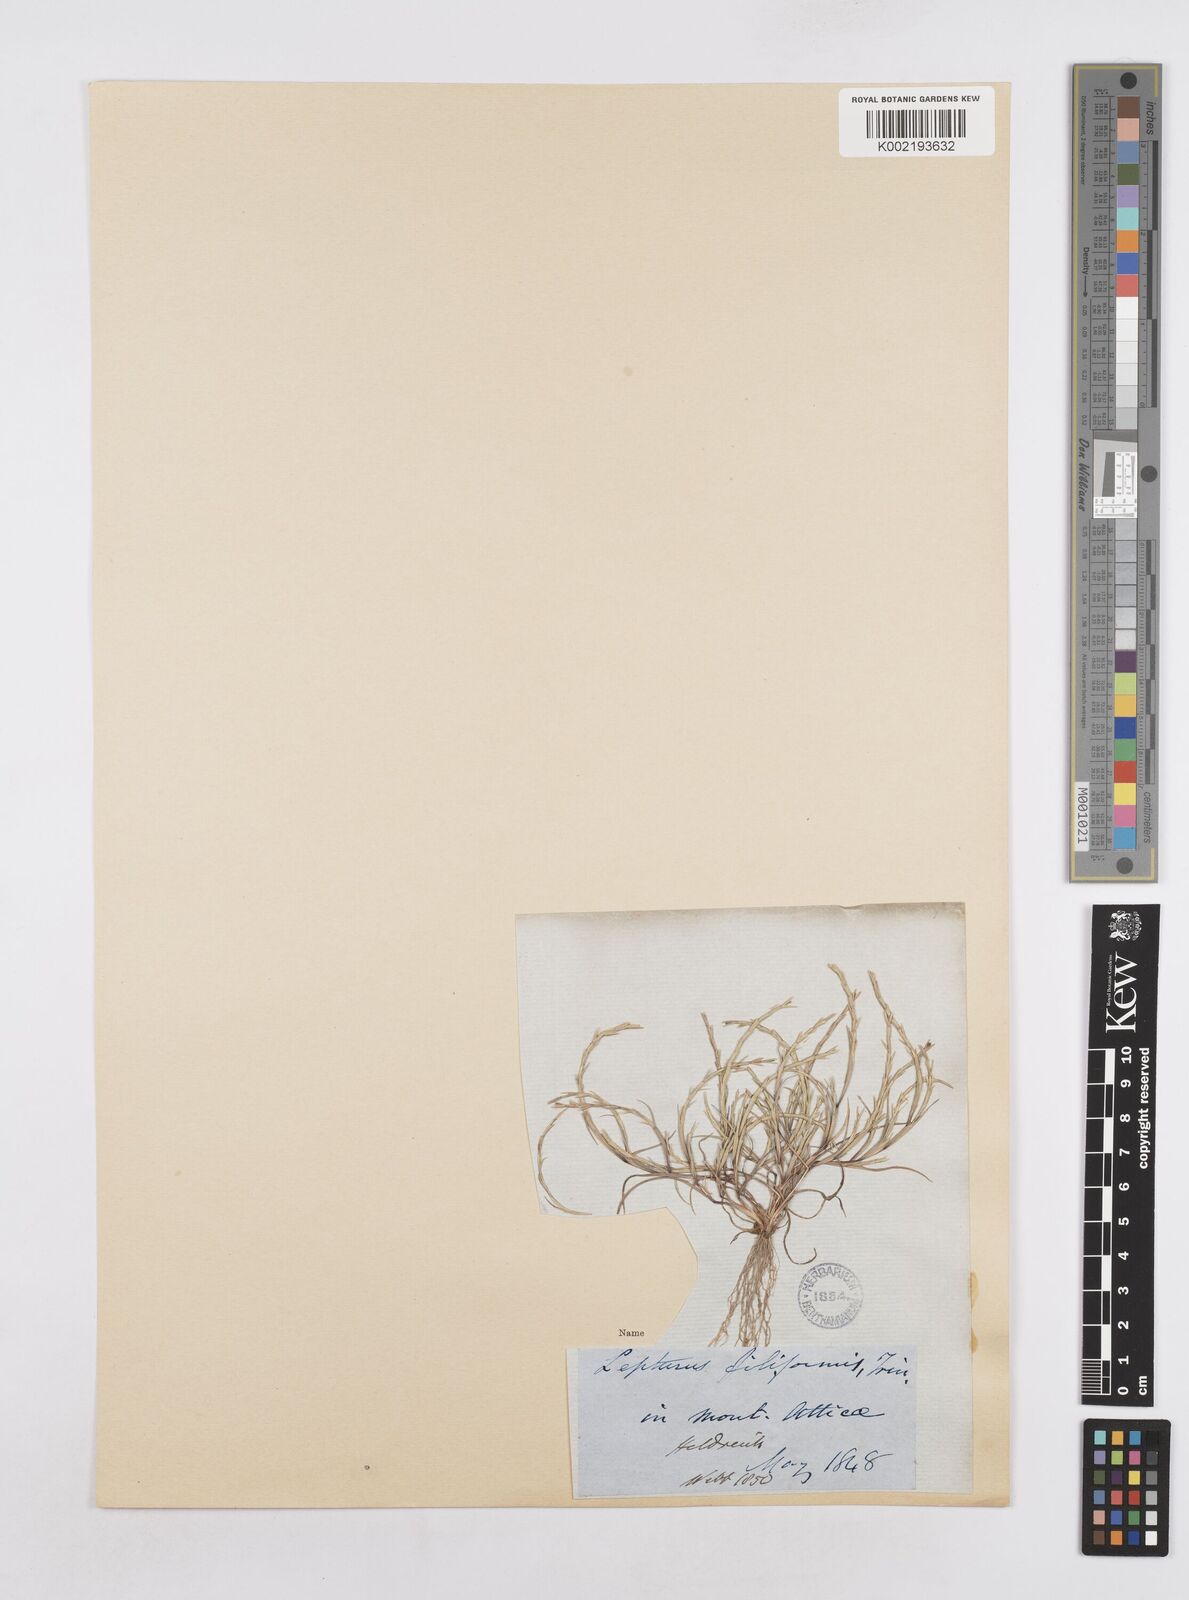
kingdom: Plantae
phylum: Tracheophyta
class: Liliopsida
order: Poales
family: Poaceae
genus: Parapholis
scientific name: Parapholis filiformis
